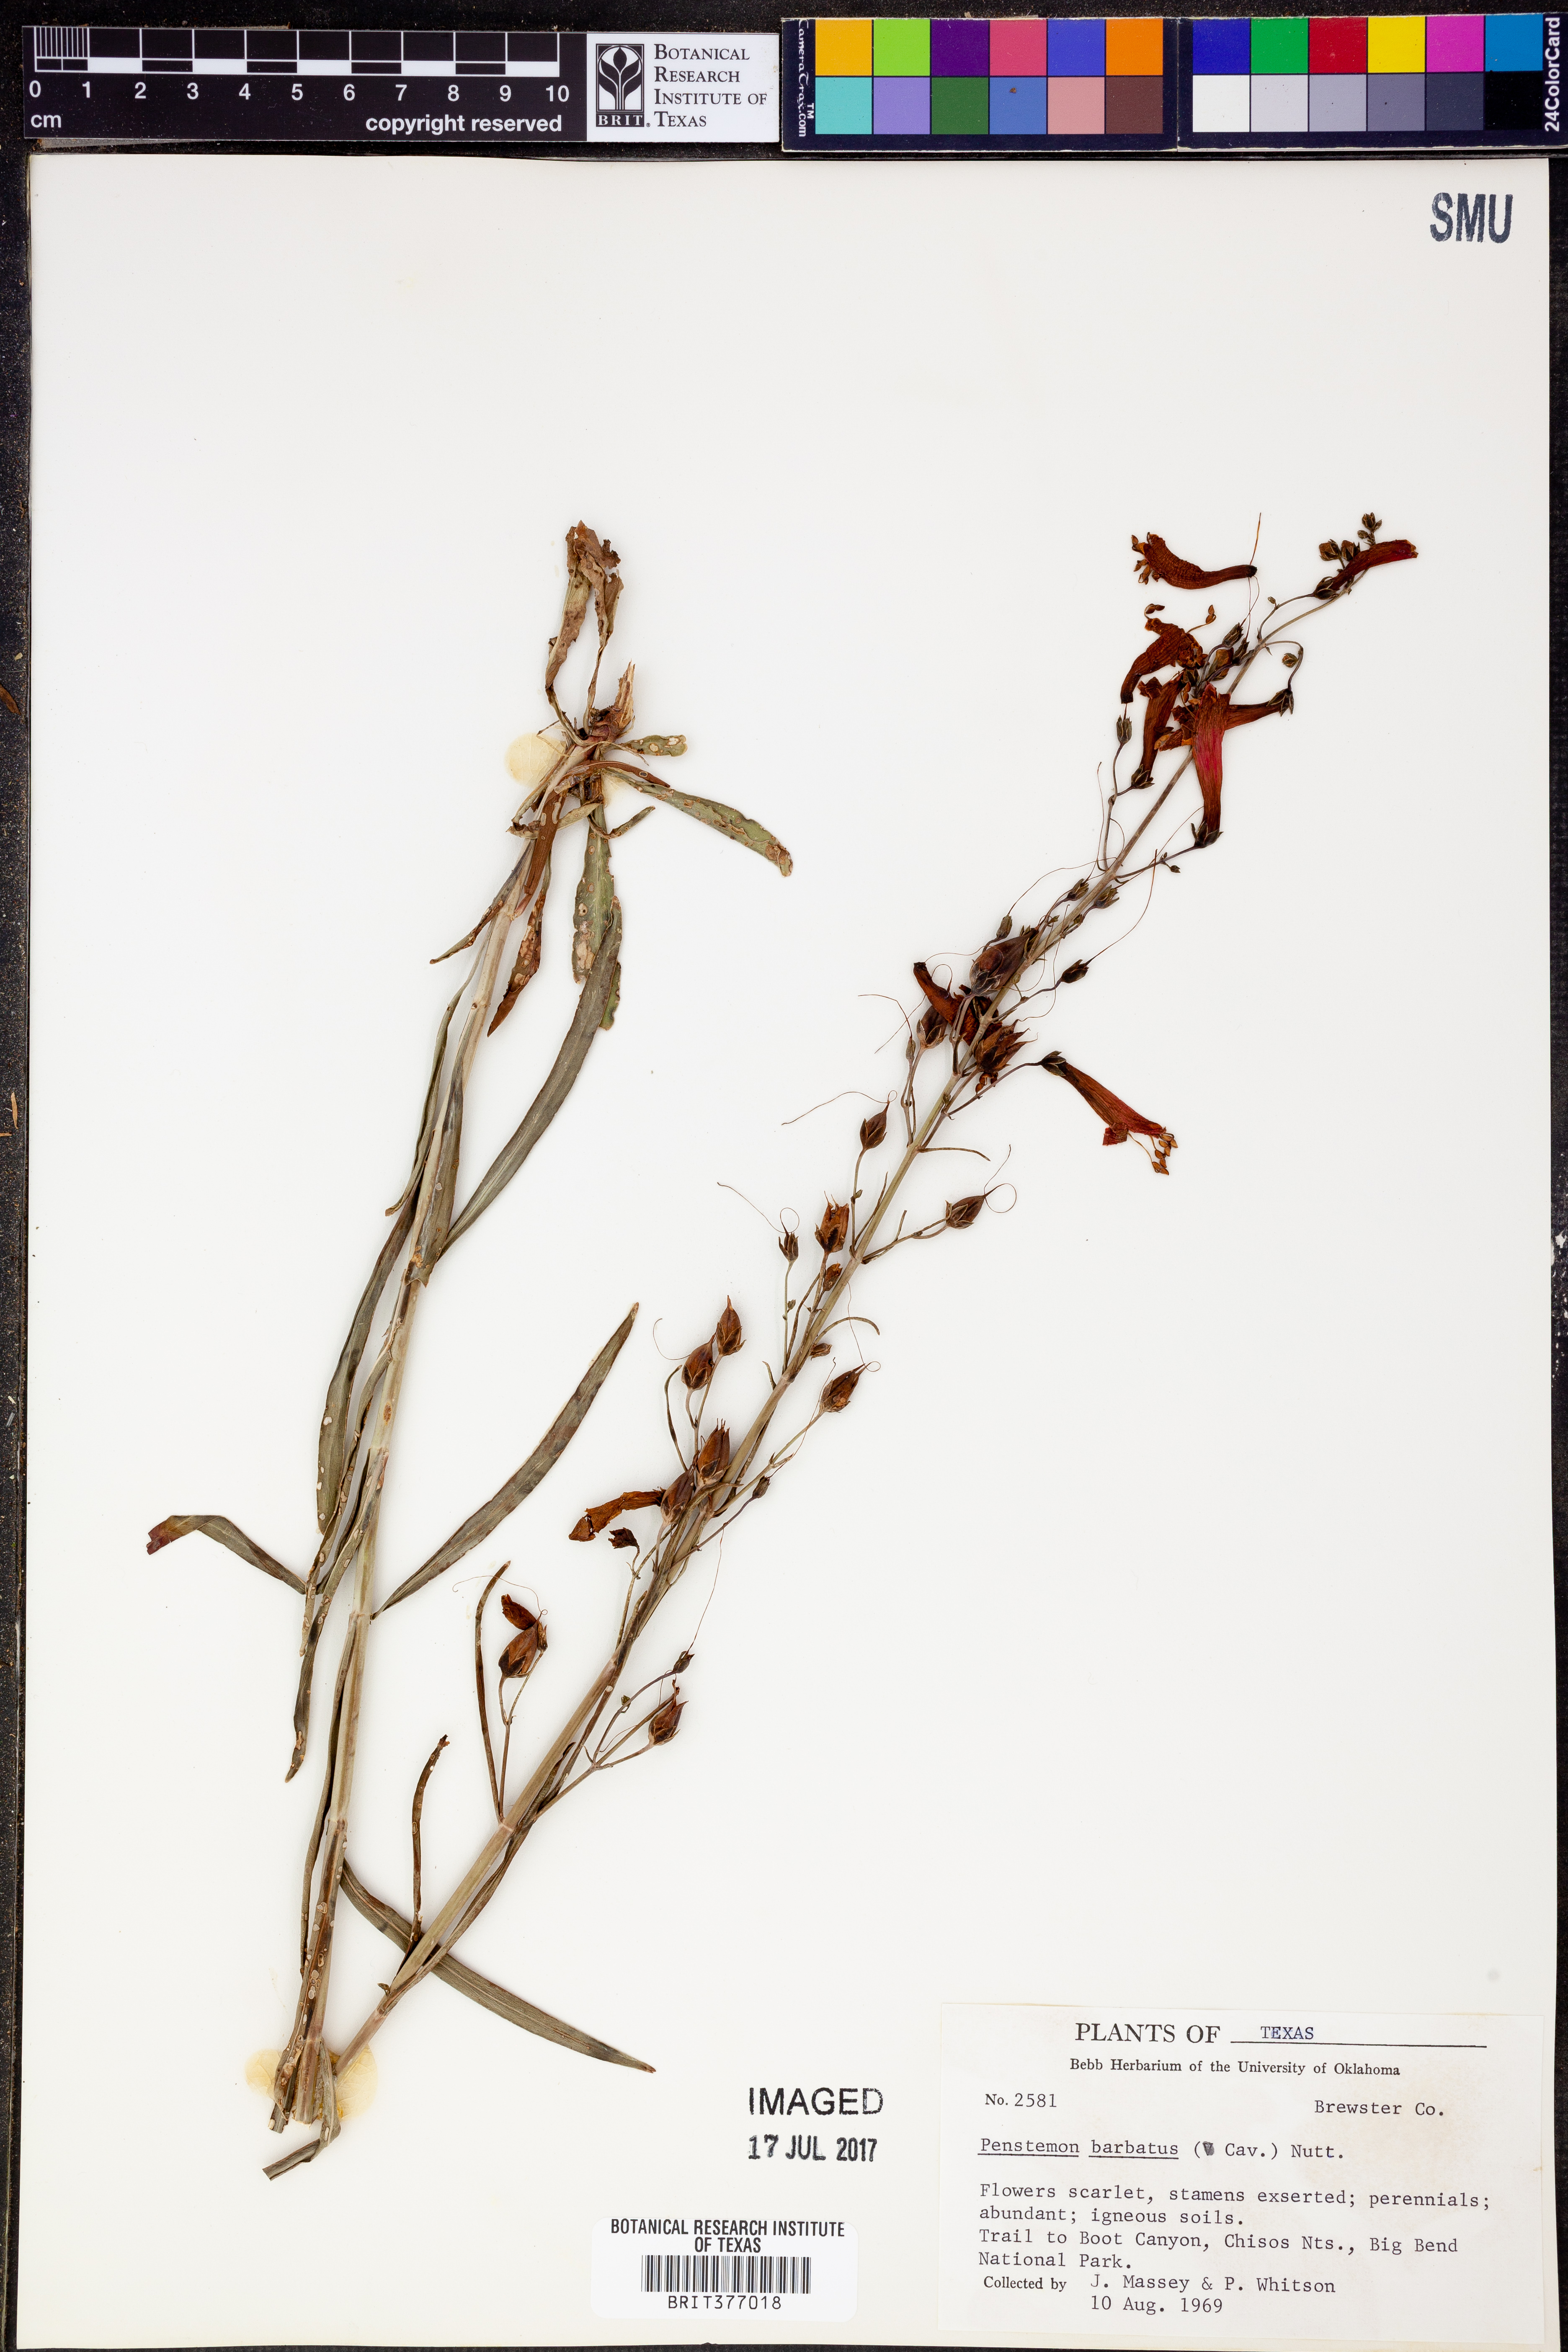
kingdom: Plantae
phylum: Tracheophyta
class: Magnoliopsida
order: Lamiales
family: Plantaginaceae
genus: Penstemon
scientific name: Penstemon barbatus
